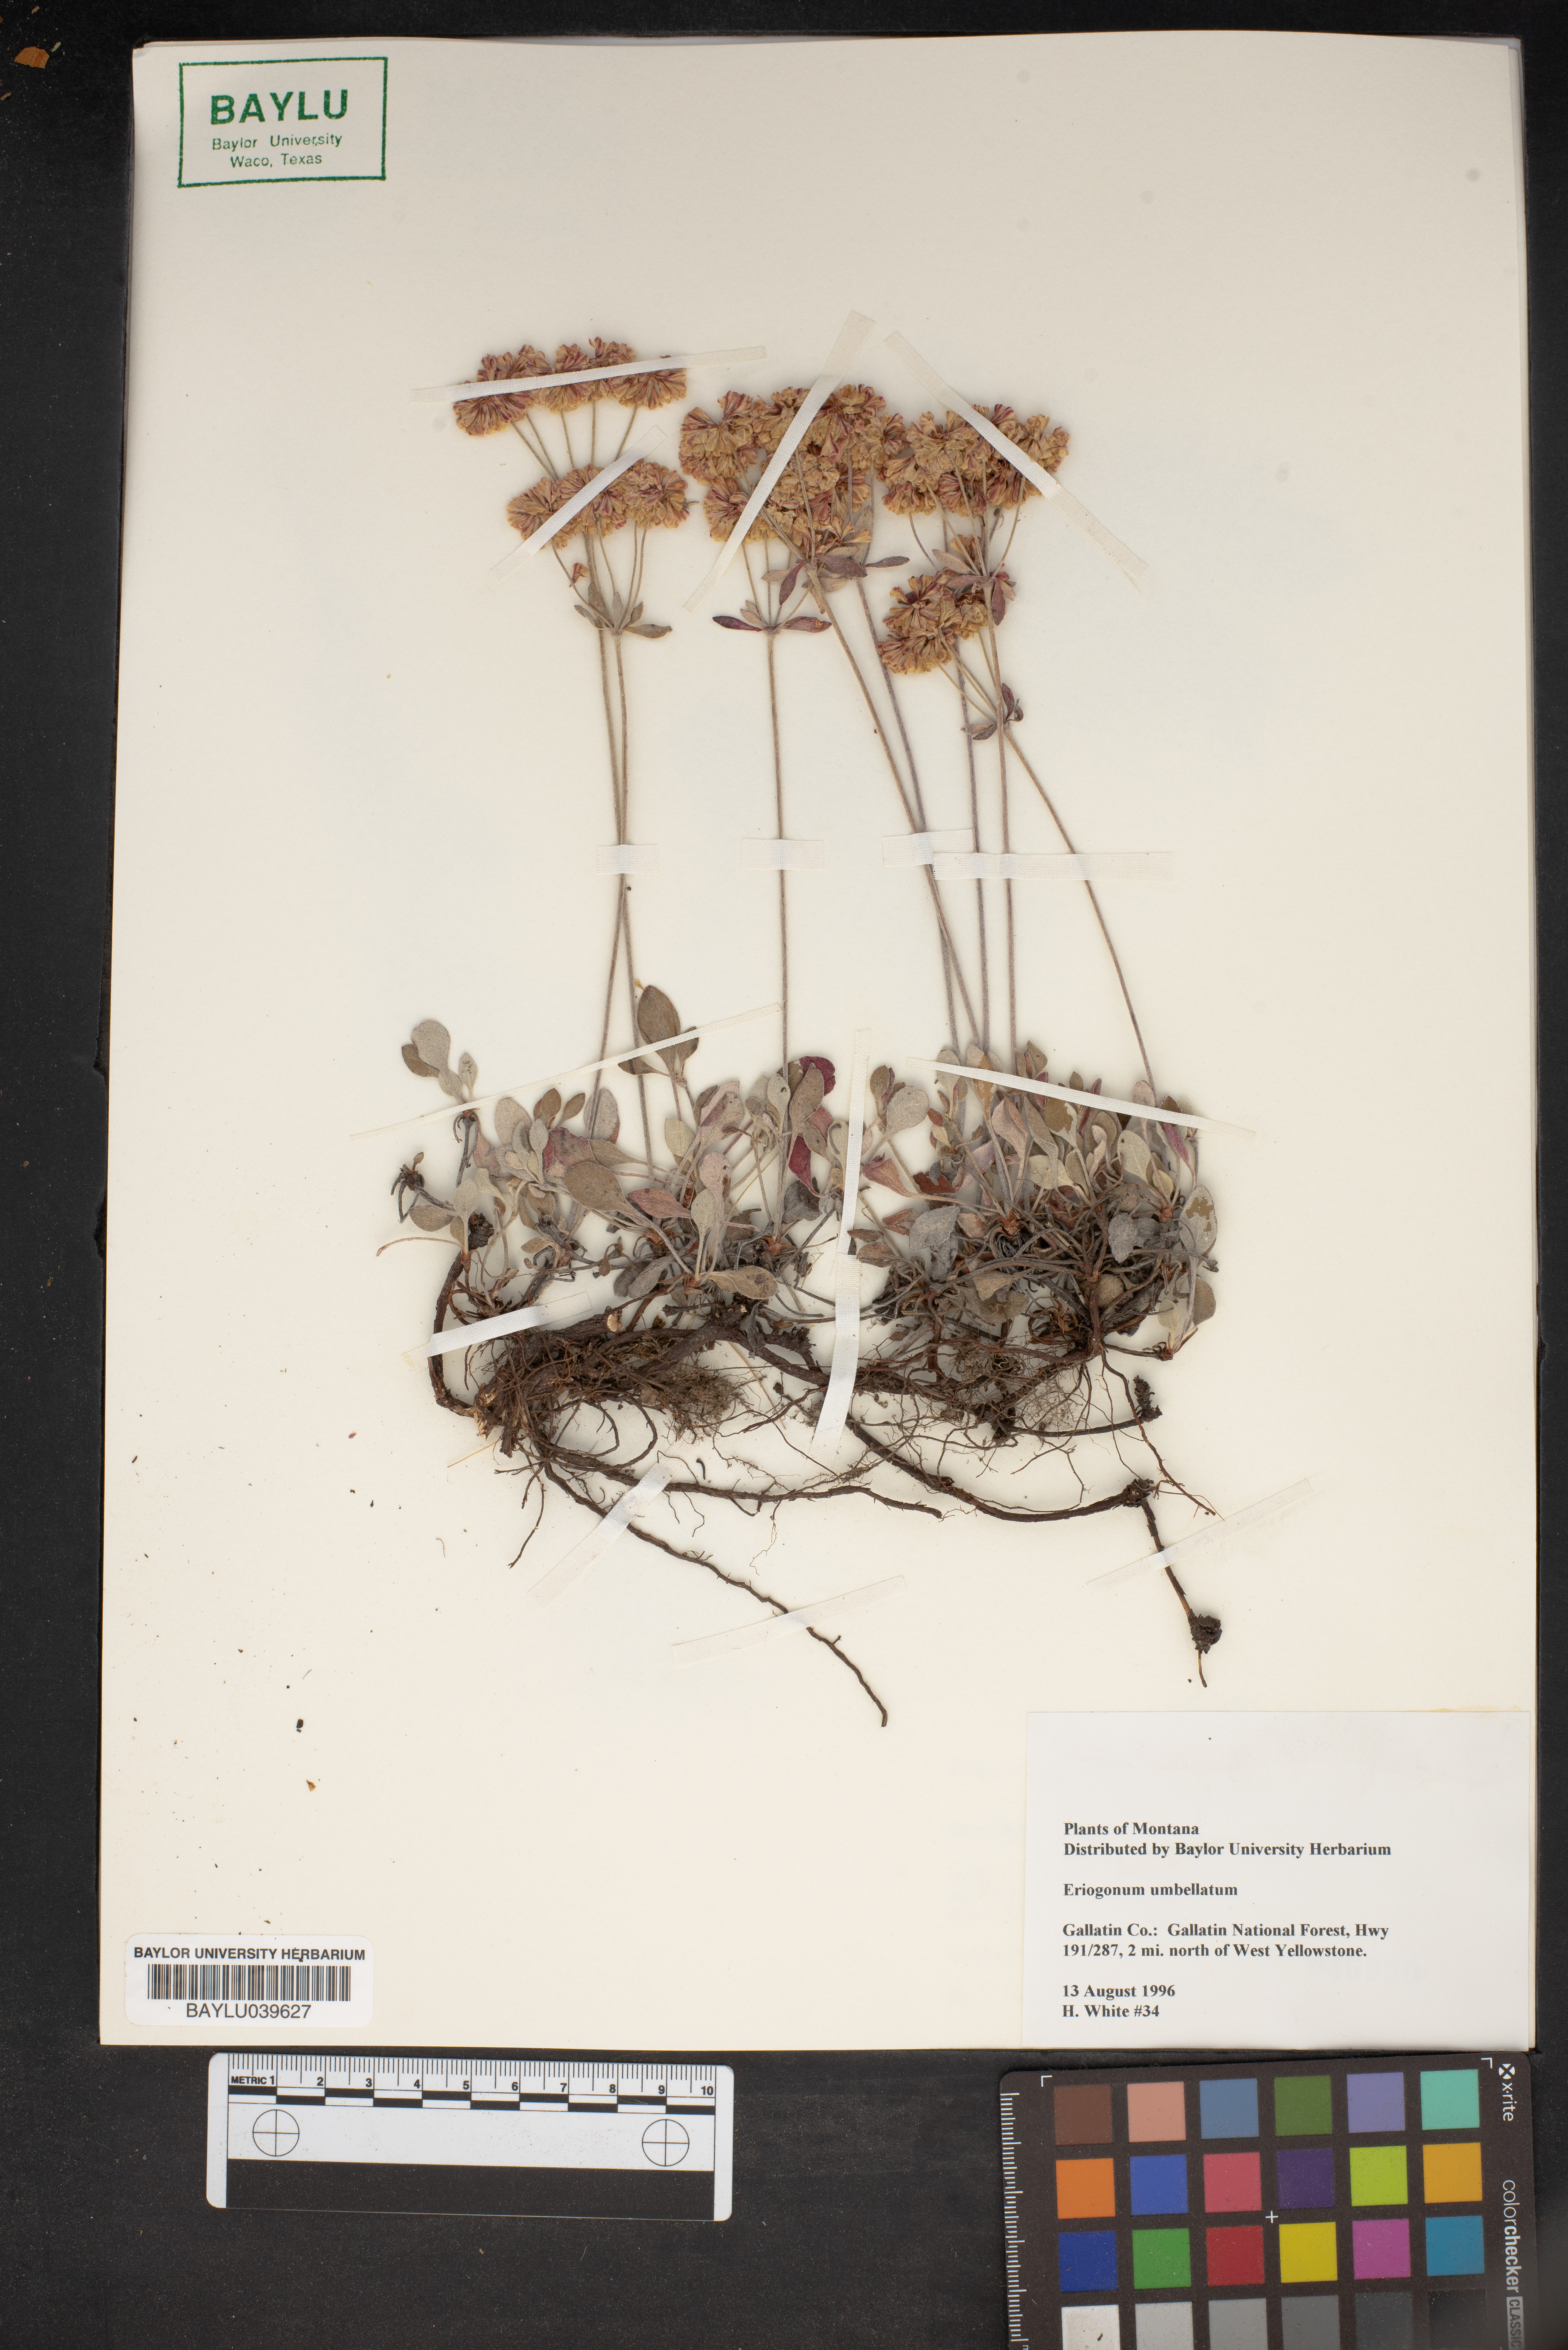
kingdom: Plantae
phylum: Tracheophyta
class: Magnoliopsida
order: Caryophyllales
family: Polygonaceae
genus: Eriogonum
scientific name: Eriogonum umbellatum
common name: Sulfur-buckwheat
